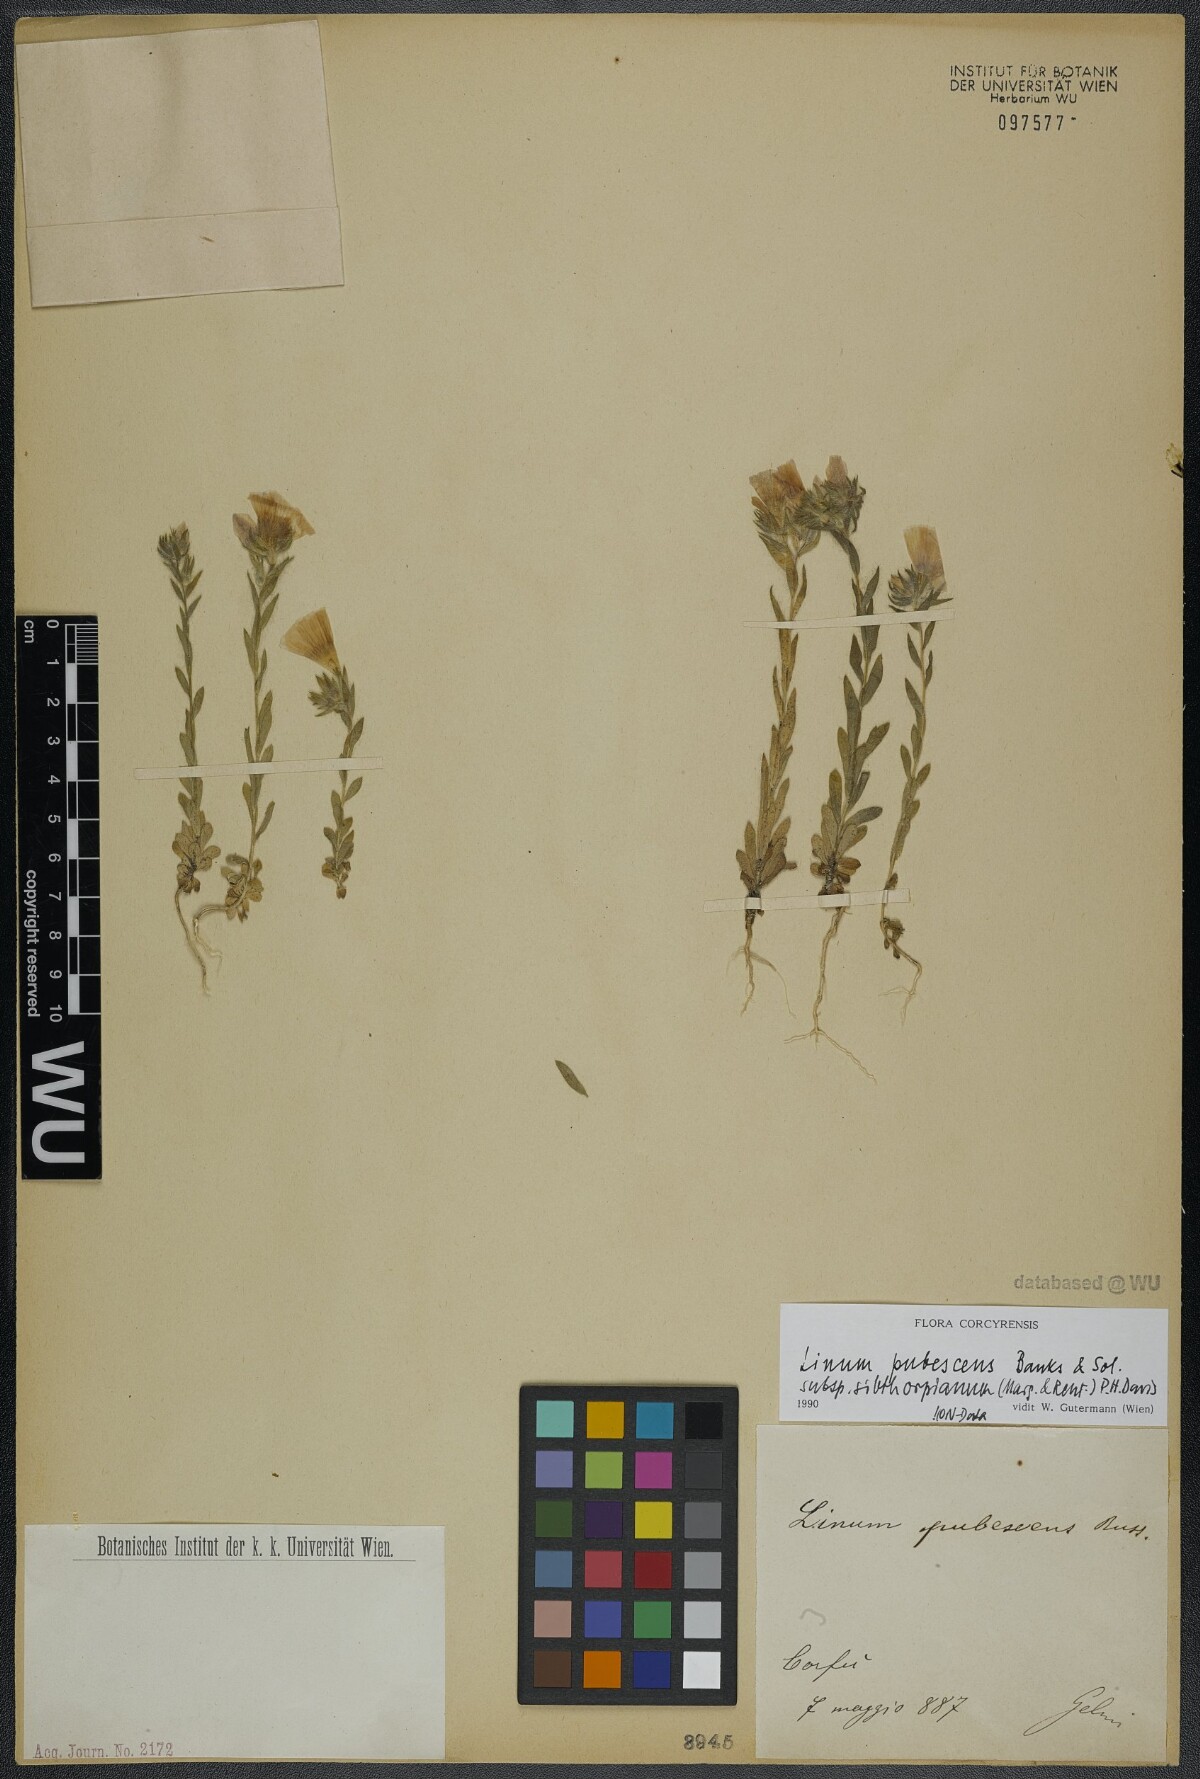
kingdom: Plantae
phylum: Tracheophyta
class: Magnoliopsida
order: Malpighiales
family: Linaceae
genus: Linum
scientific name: Linum pubescens
